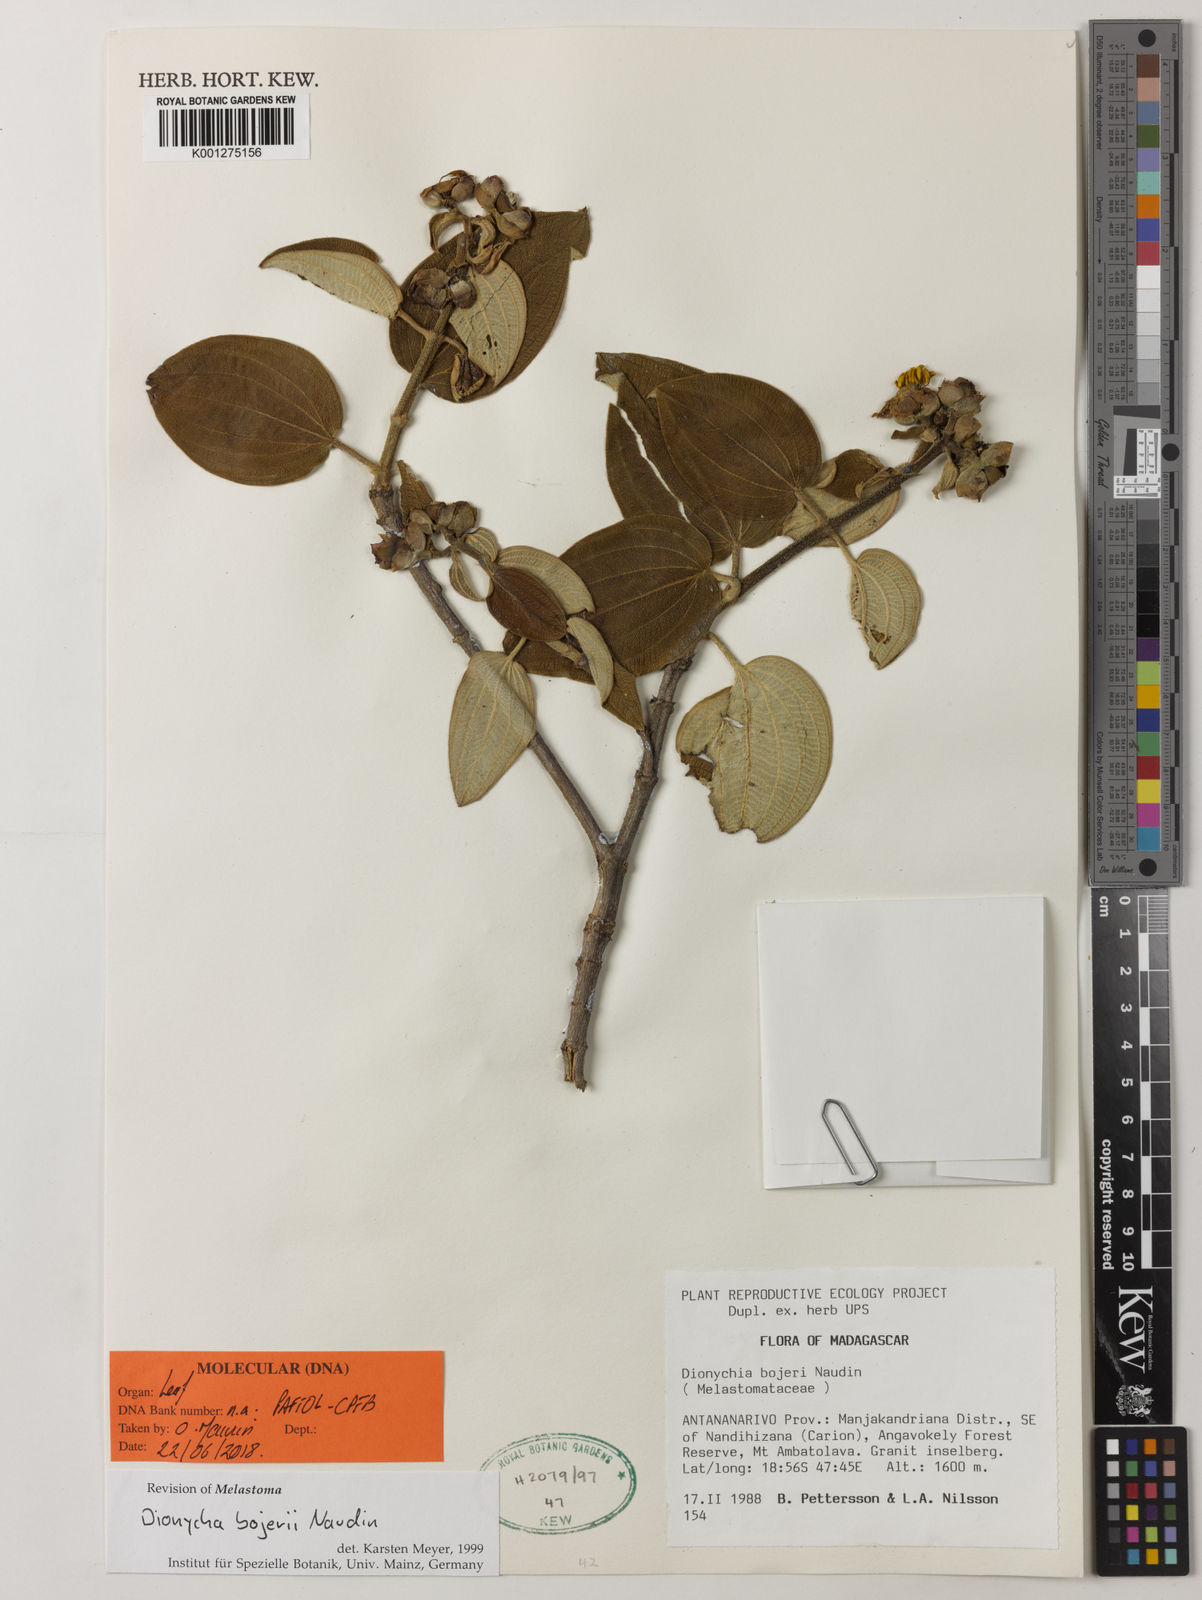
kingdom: Plantae
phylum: Tracheophyta
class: Magnoliopsida
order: Myrtales
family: Melastomataceae
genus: Dionycha
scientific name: Dionycha bojerii
